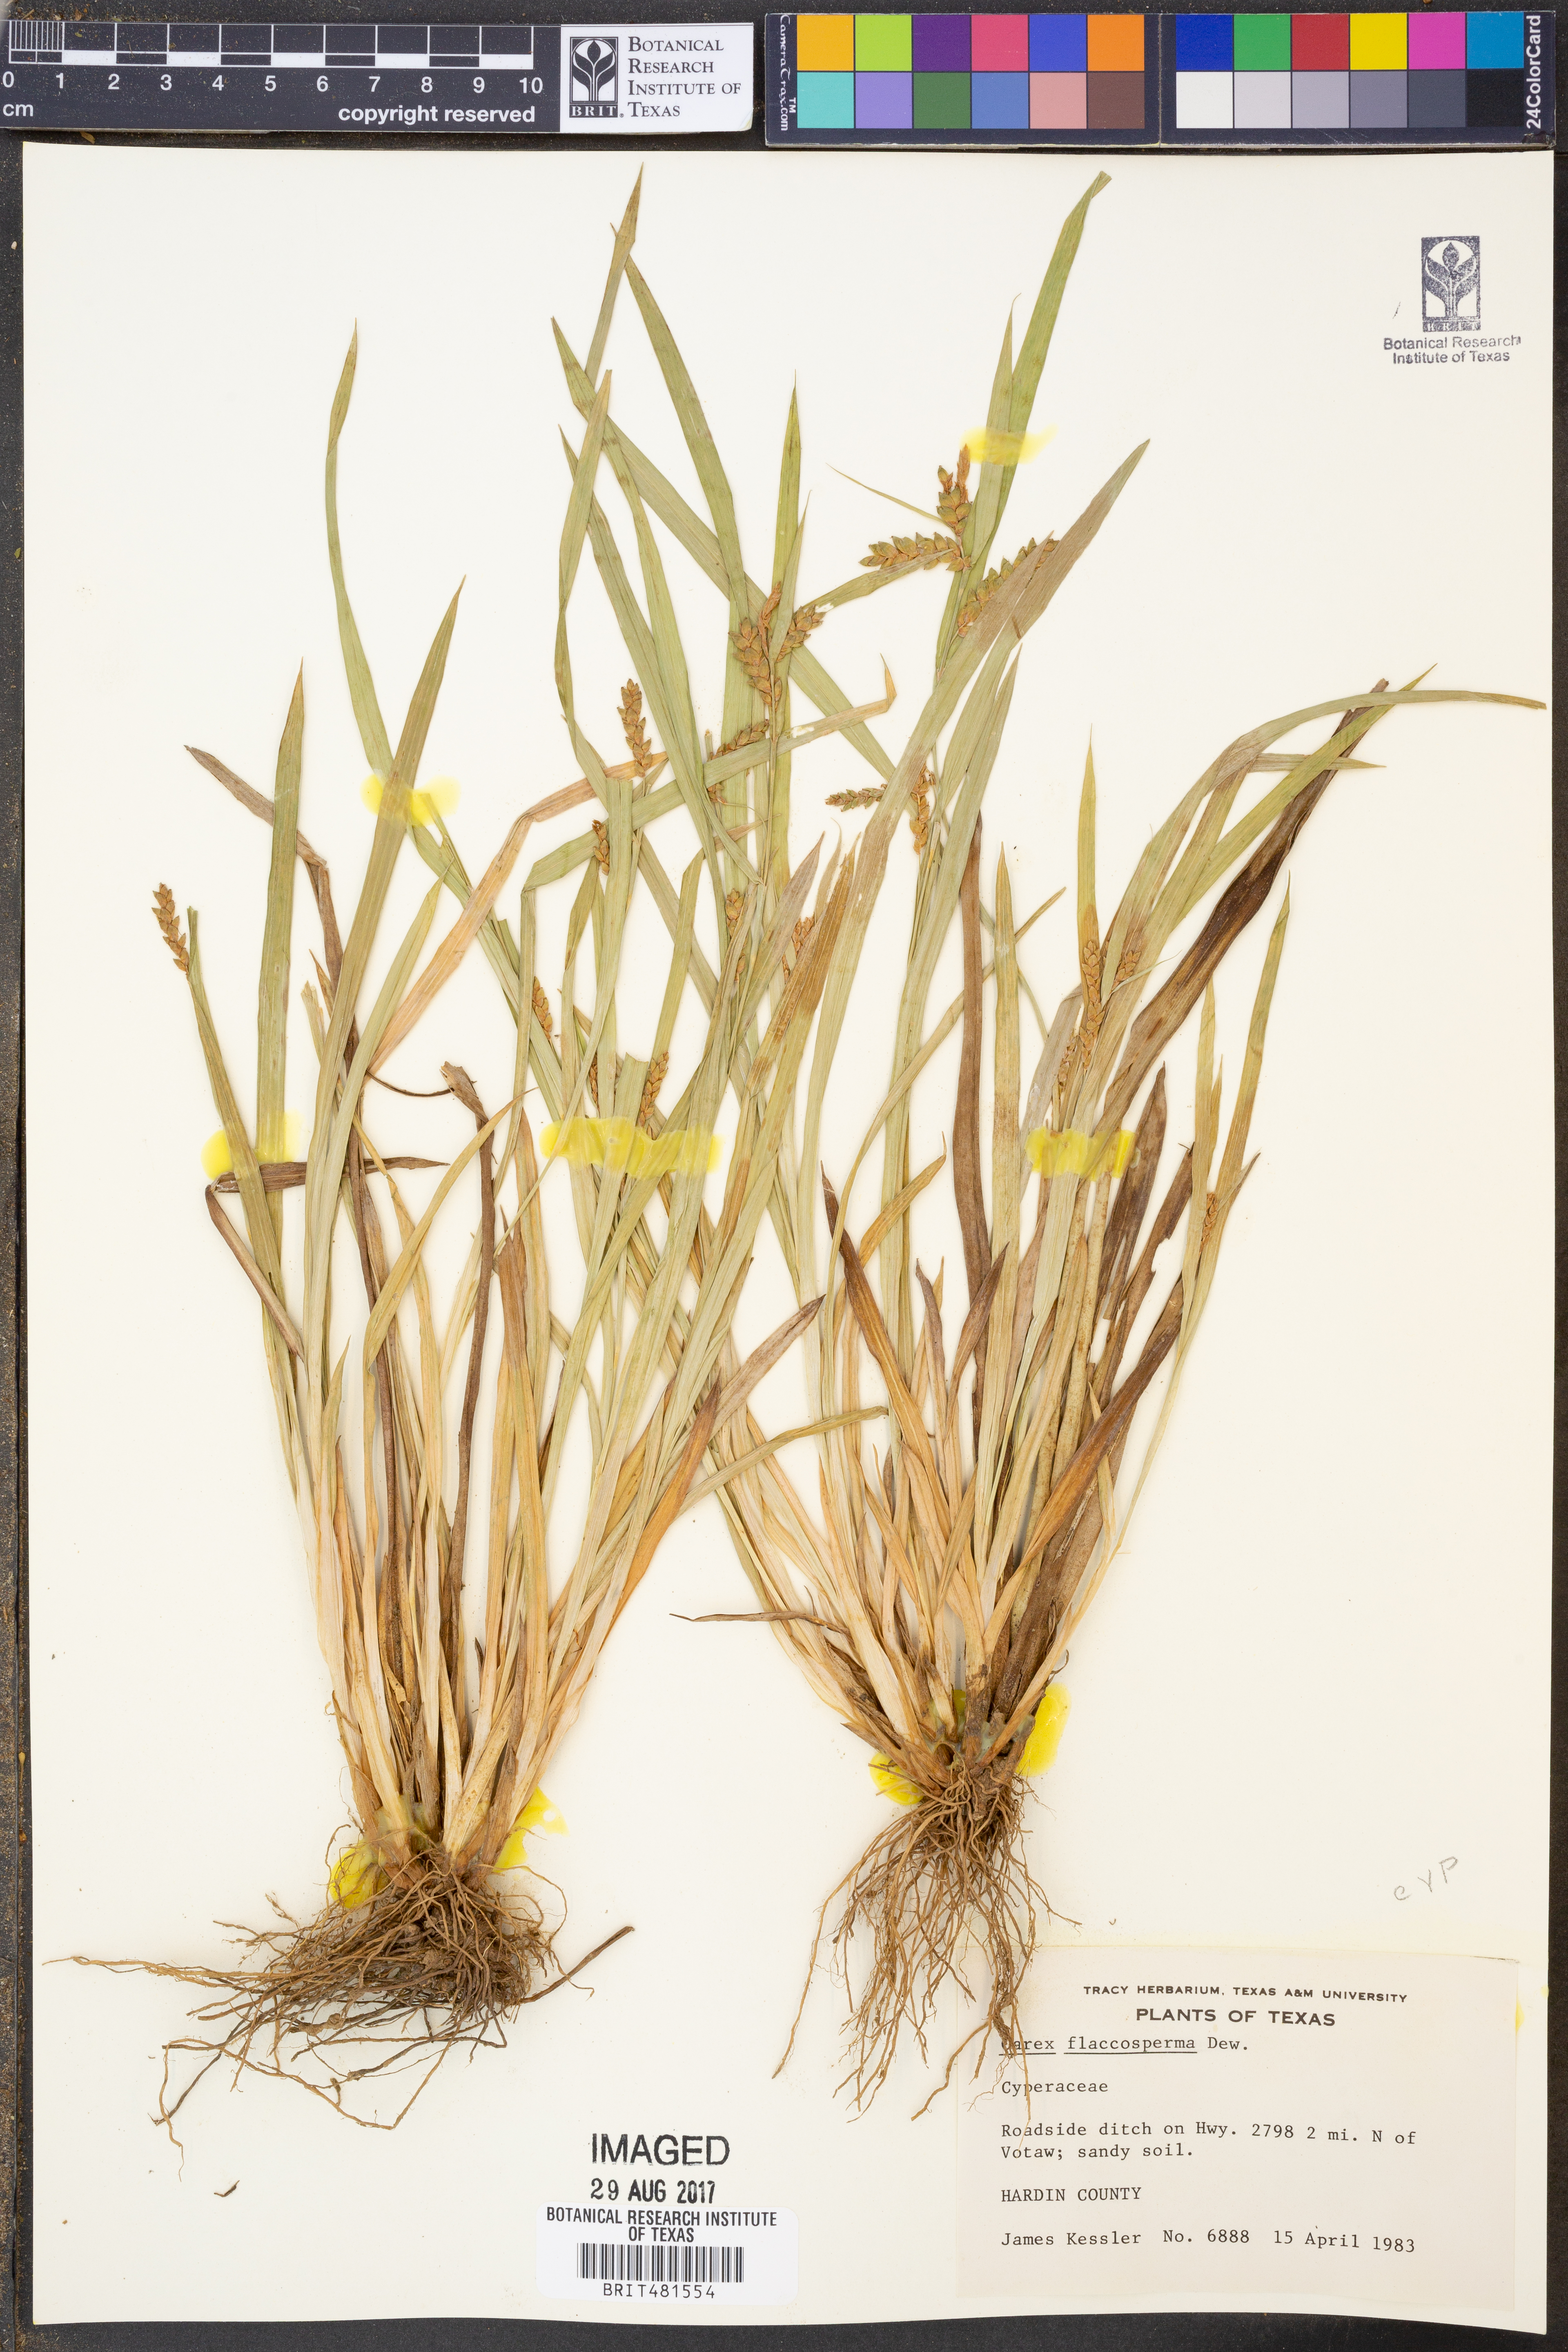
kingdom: Plantae
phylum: Tracheophyta
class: Liliopsida
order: Poales
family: Cyperaceae
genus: Carex
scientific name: Carex flaccosperma
